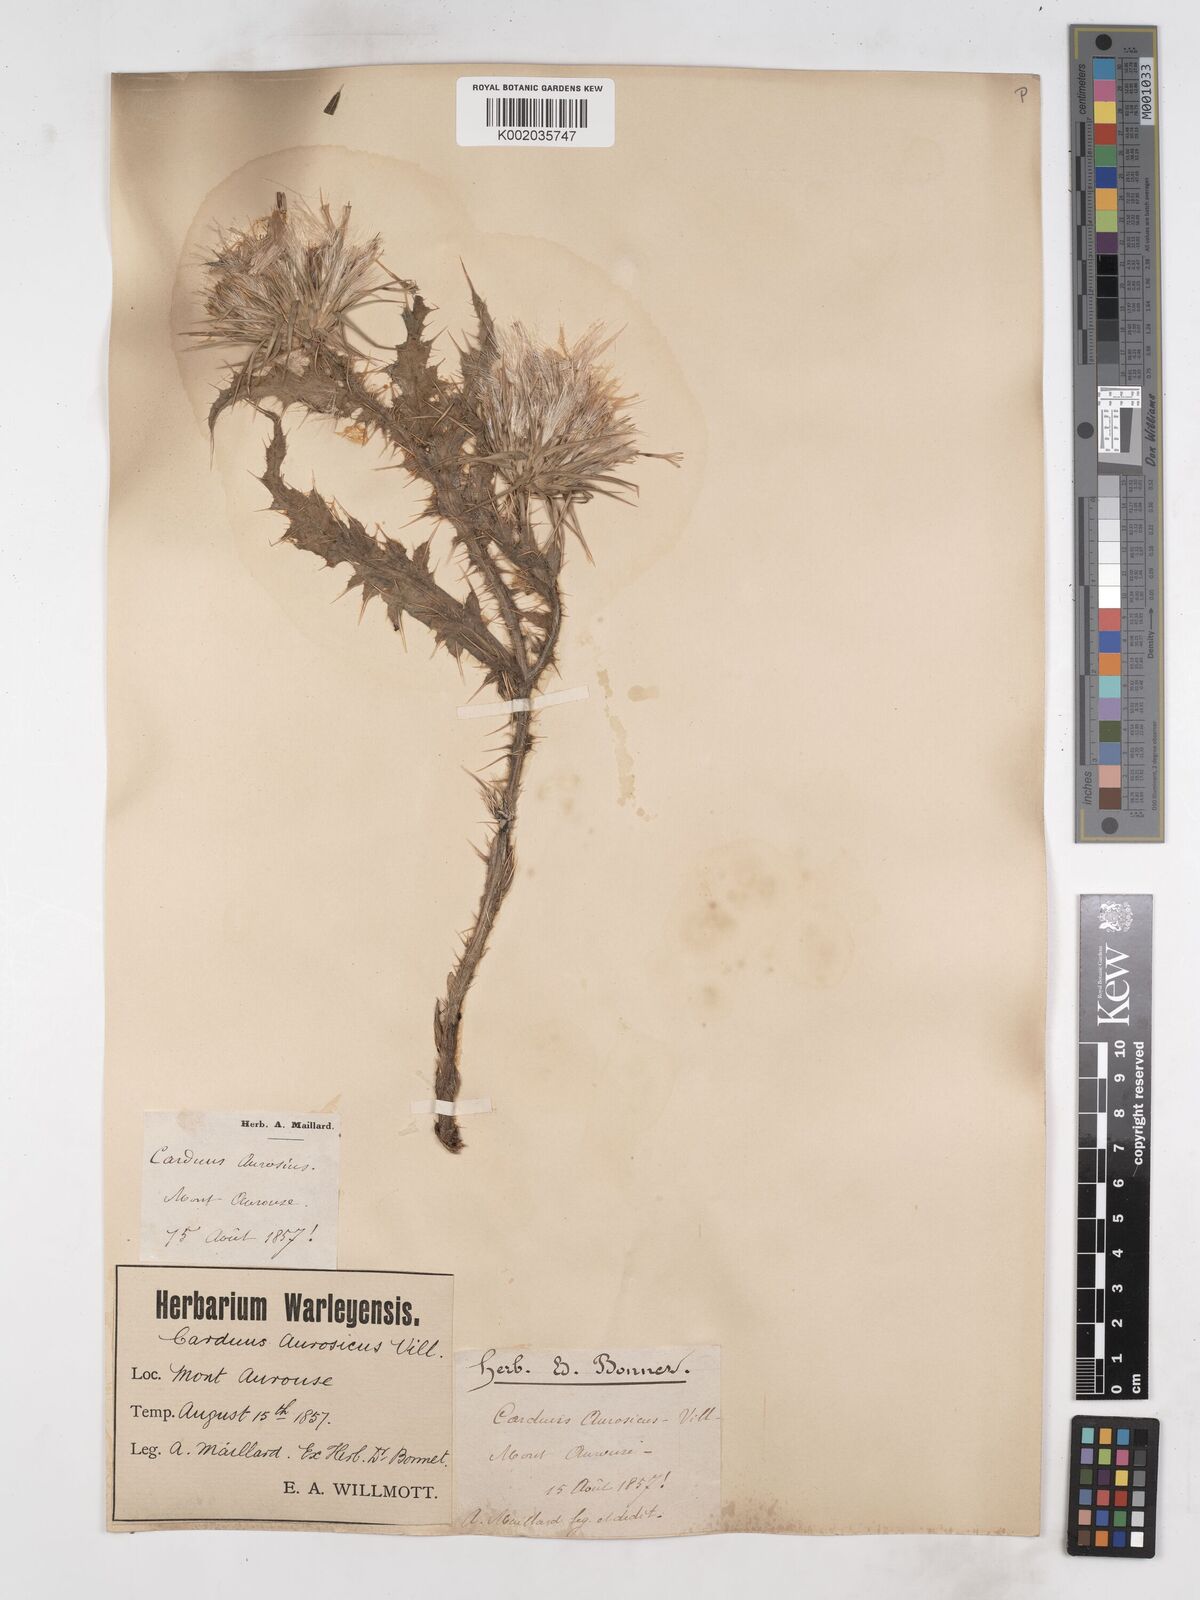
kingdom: Plantae
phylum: Tracheophyta
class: Magnoliopsida
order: Asterales
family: Asteraceae
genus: Carduus
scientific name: Carduus aurosicus
